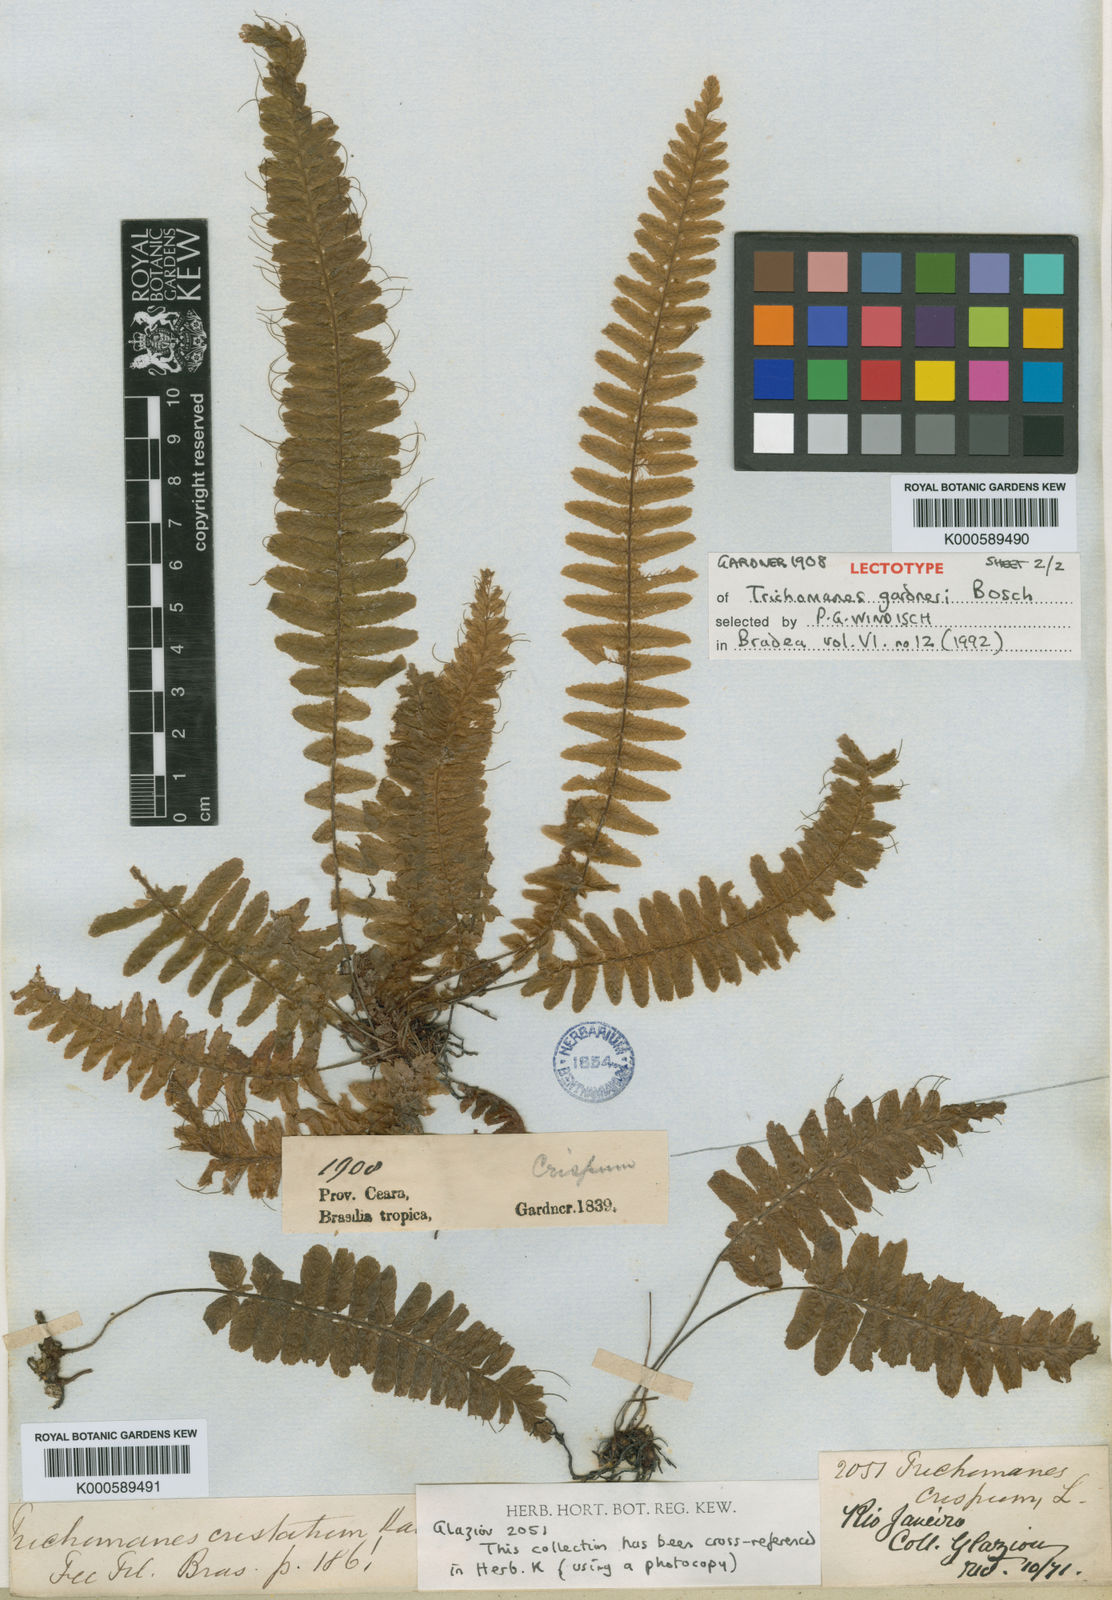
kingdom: Plantae
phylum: Tracheophyta
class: Polypodiopsida
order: Hymenophyllales
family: Hymenophyllaceae
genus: Trichomanes
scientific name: Trichomanes crispum
